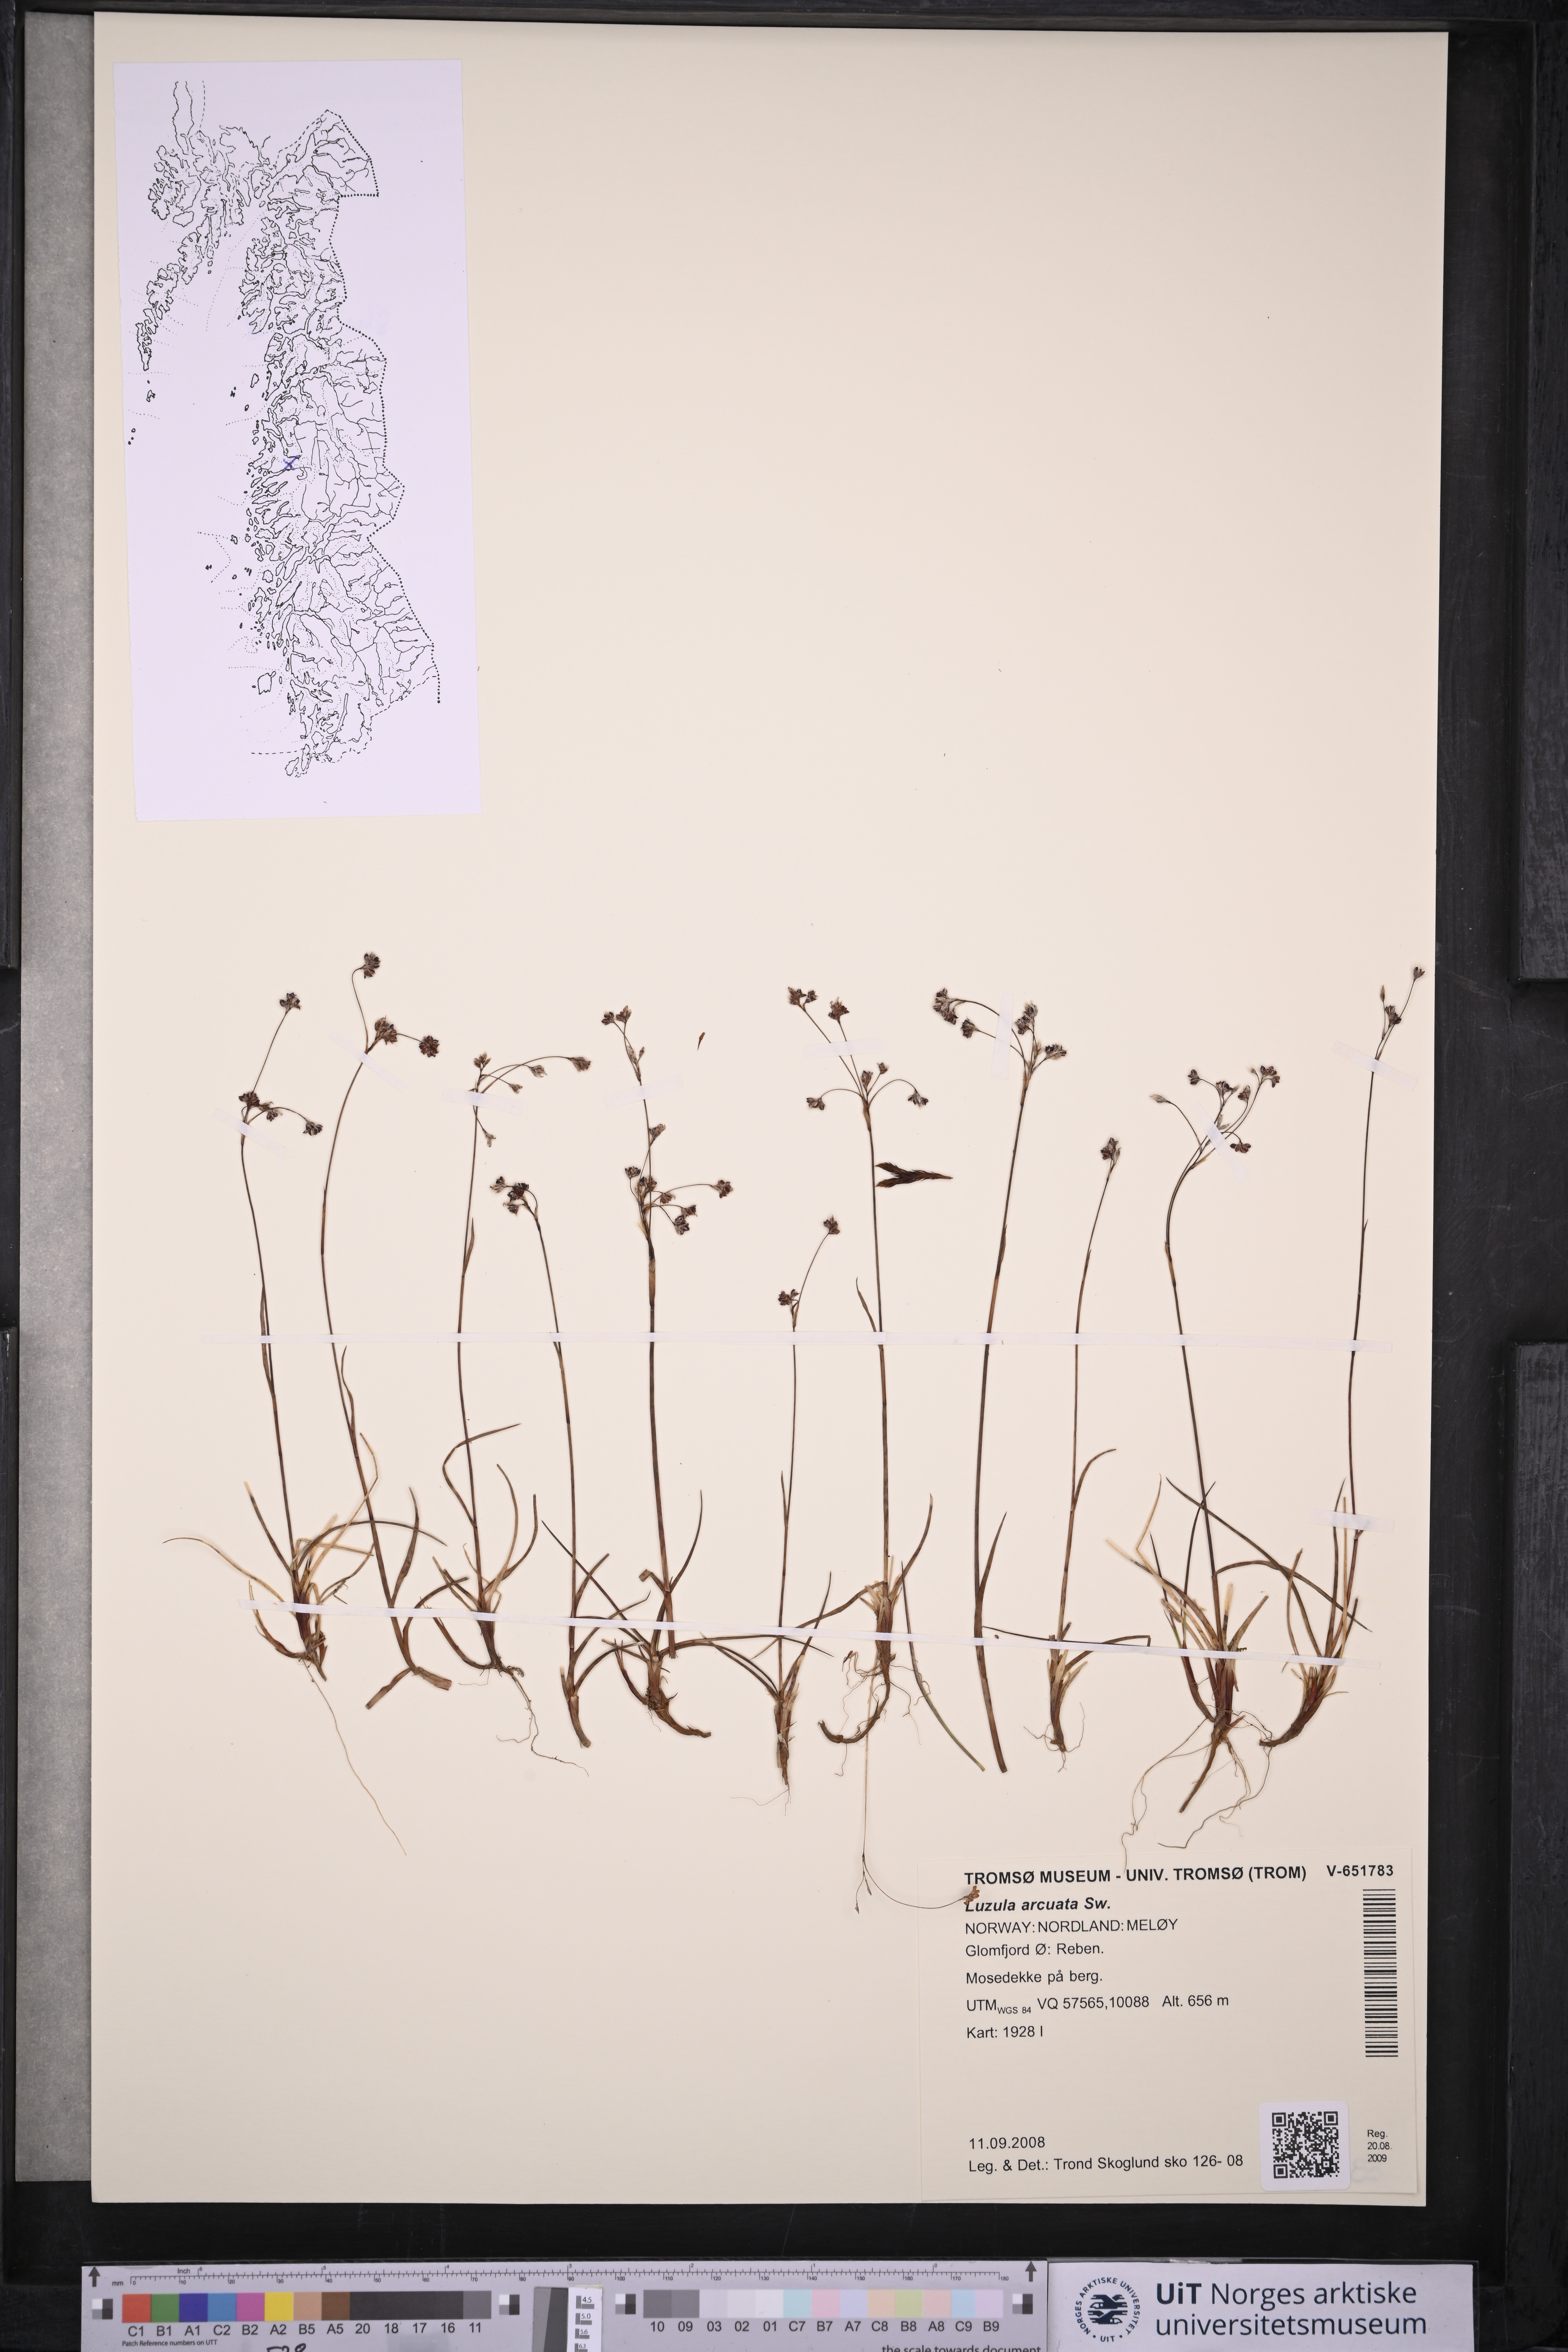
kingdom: Plantae
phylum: Tracheophyta
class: Liliopsida
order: Poales
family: Juncaceae
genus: Luzula
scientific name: Luzula arcuata
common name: Curved wood-rush
